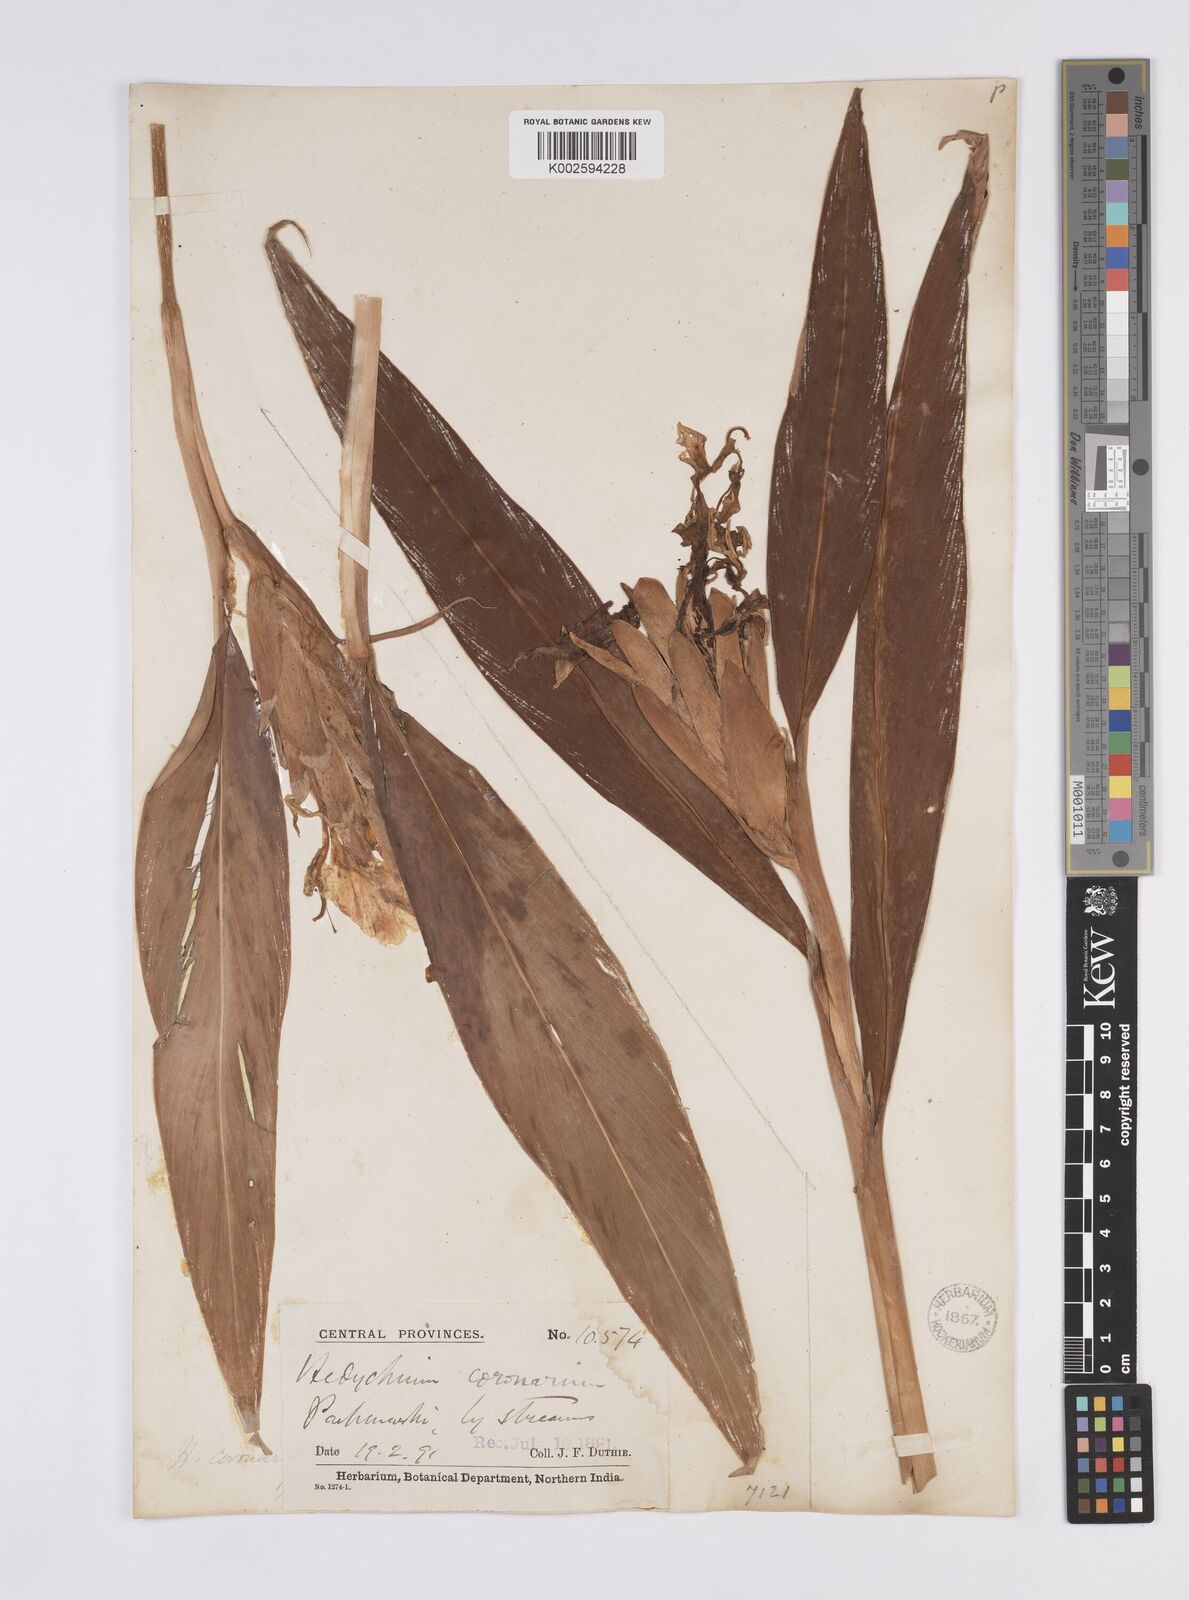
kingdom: Plantae
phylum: Tracheophyta
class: Liliopsida
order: Zingiberales
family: Zingiberaceae
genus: Hedychium
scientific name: Hedychium
